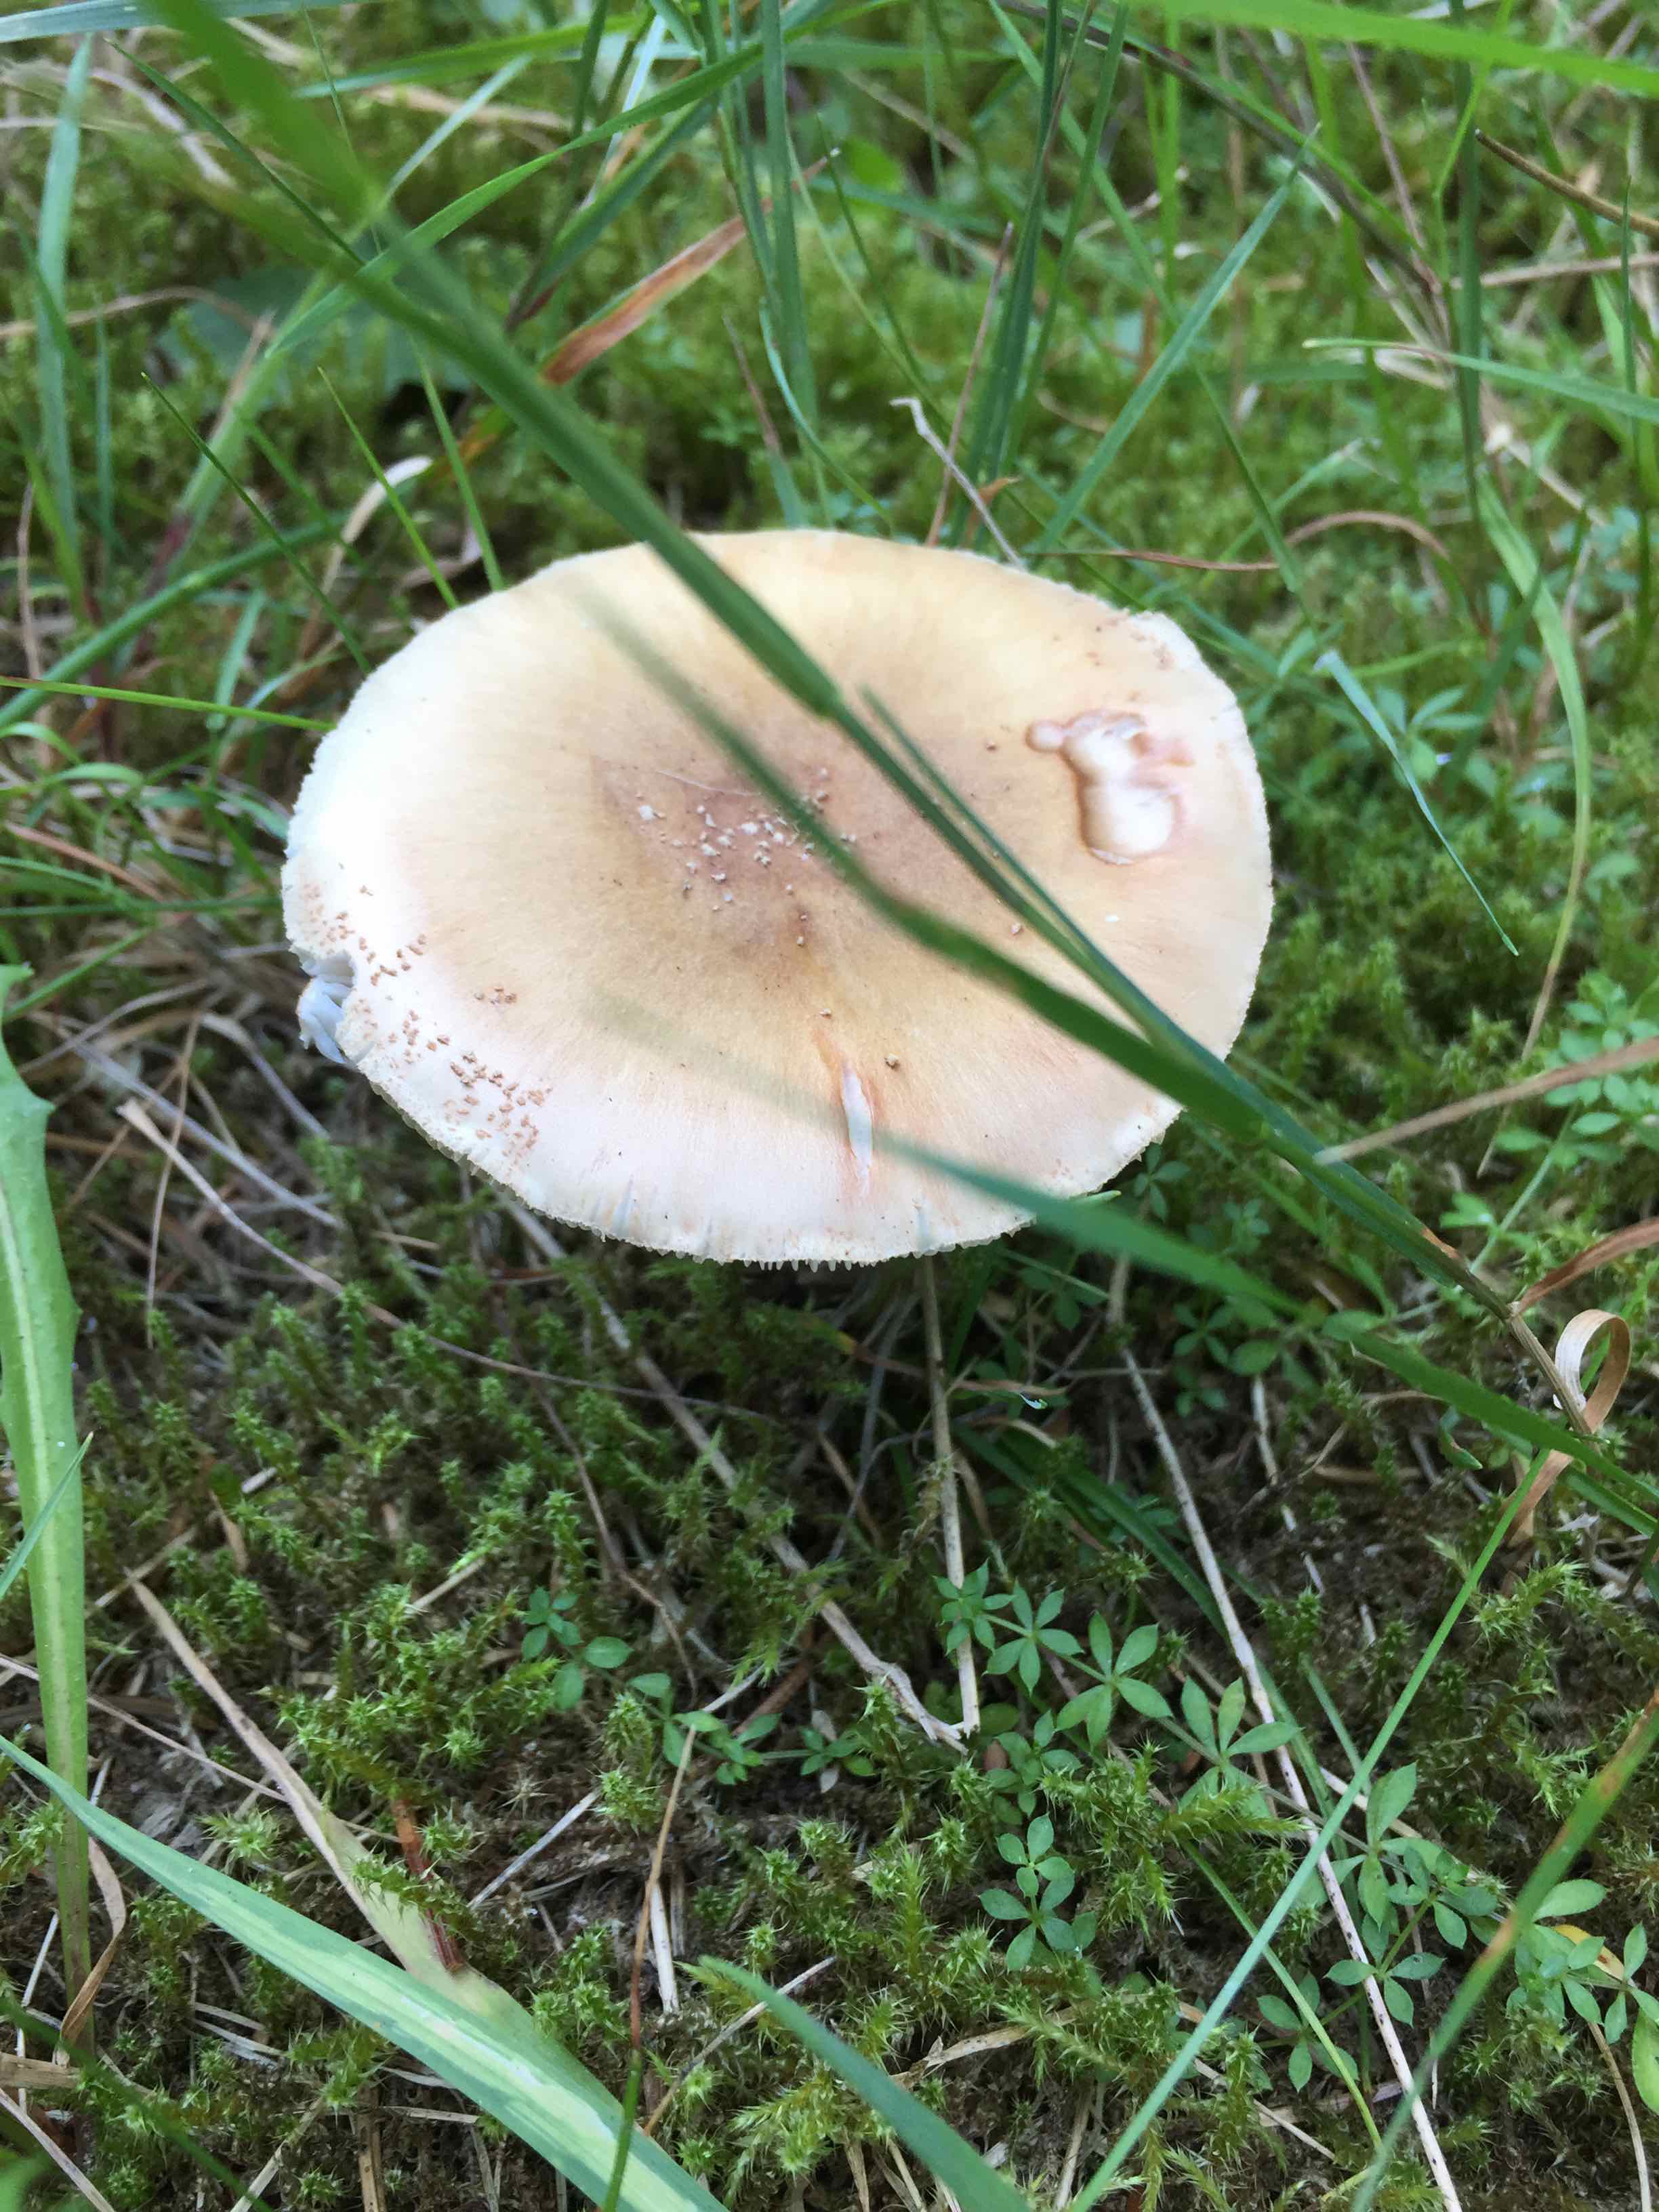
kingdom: Fungi
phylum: Basidiomycota
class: Agaricomycetes
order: Agaricales
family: Amanitaceae
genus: Amanita
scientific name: Amanita rubescens
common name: rødmende fluesvamp
